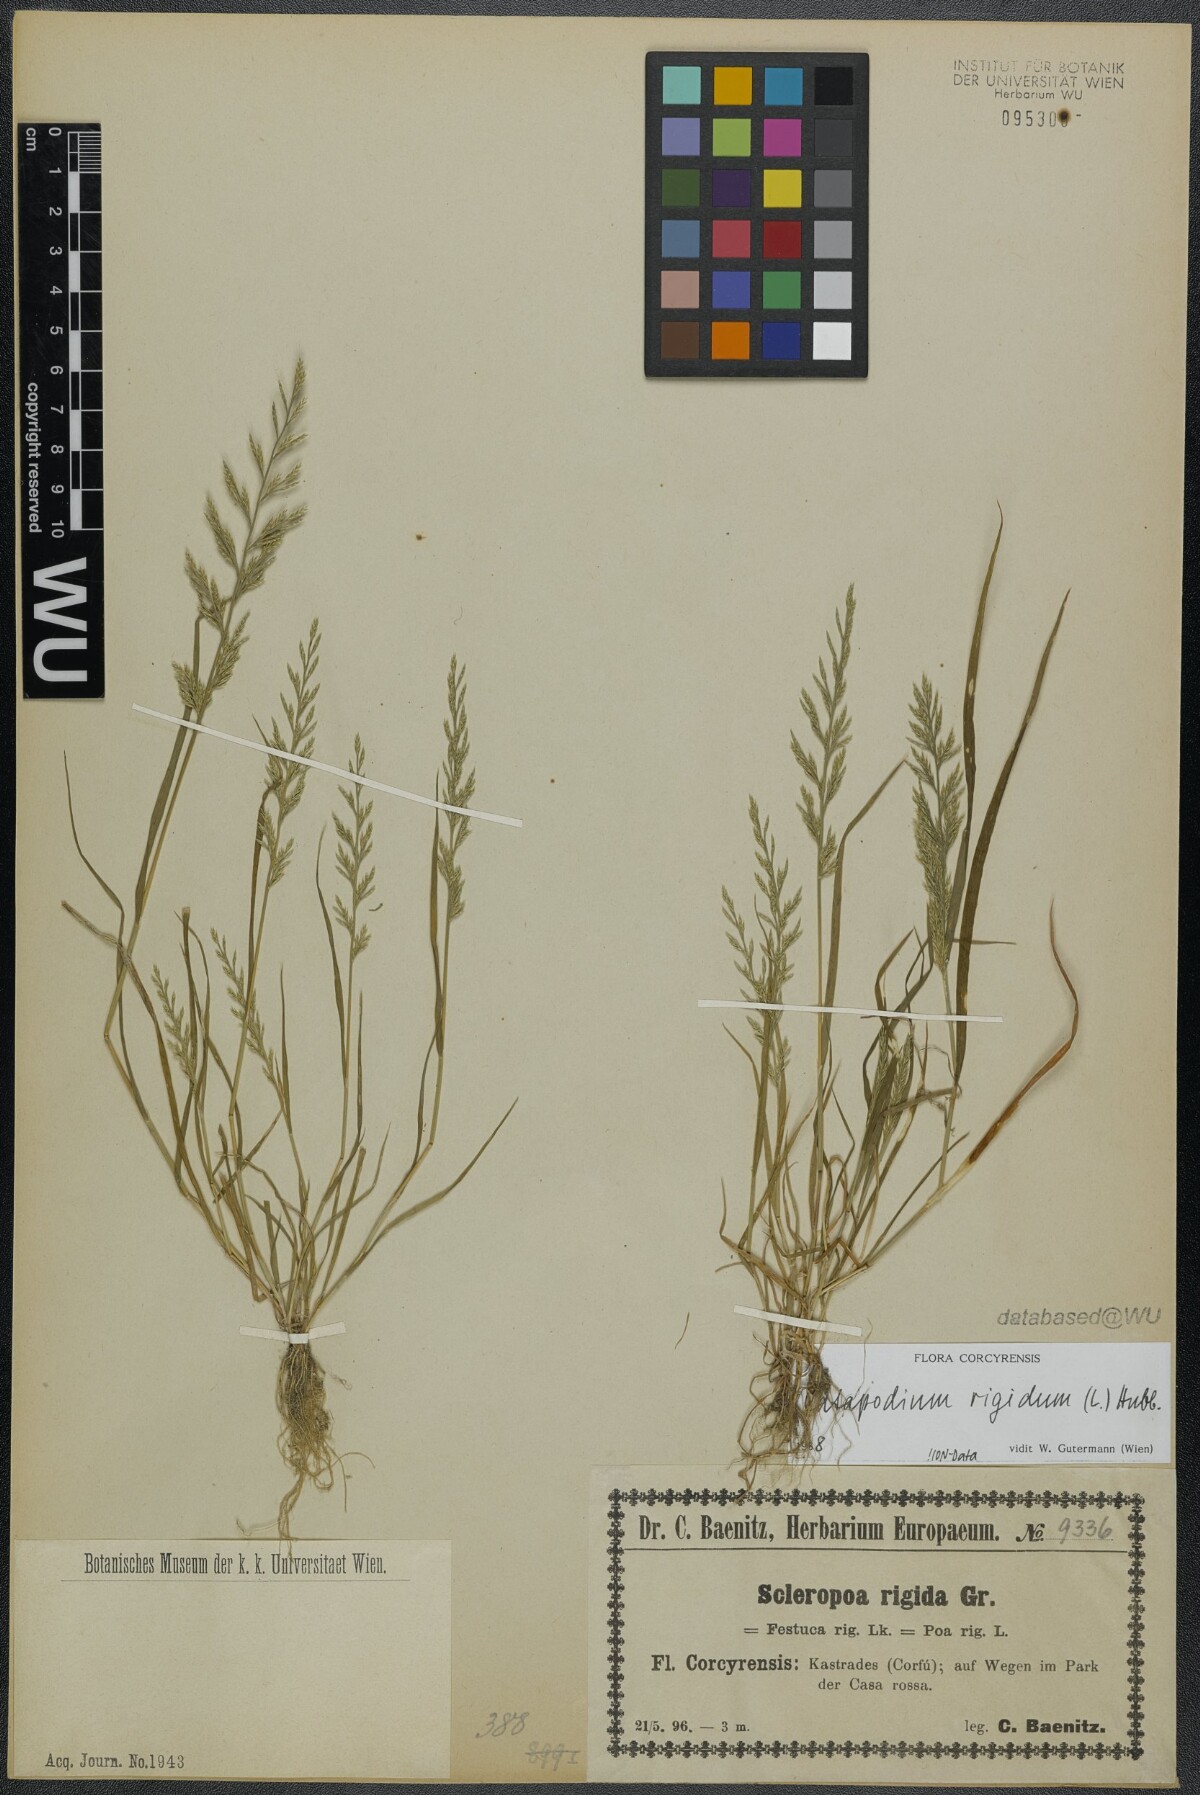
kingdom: Plantae
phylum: Tracheophyta
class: Liliopsida
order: Poales
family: Poaceae
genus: Catapodium
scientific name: Catapodium rigidum
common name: Fern-grass
